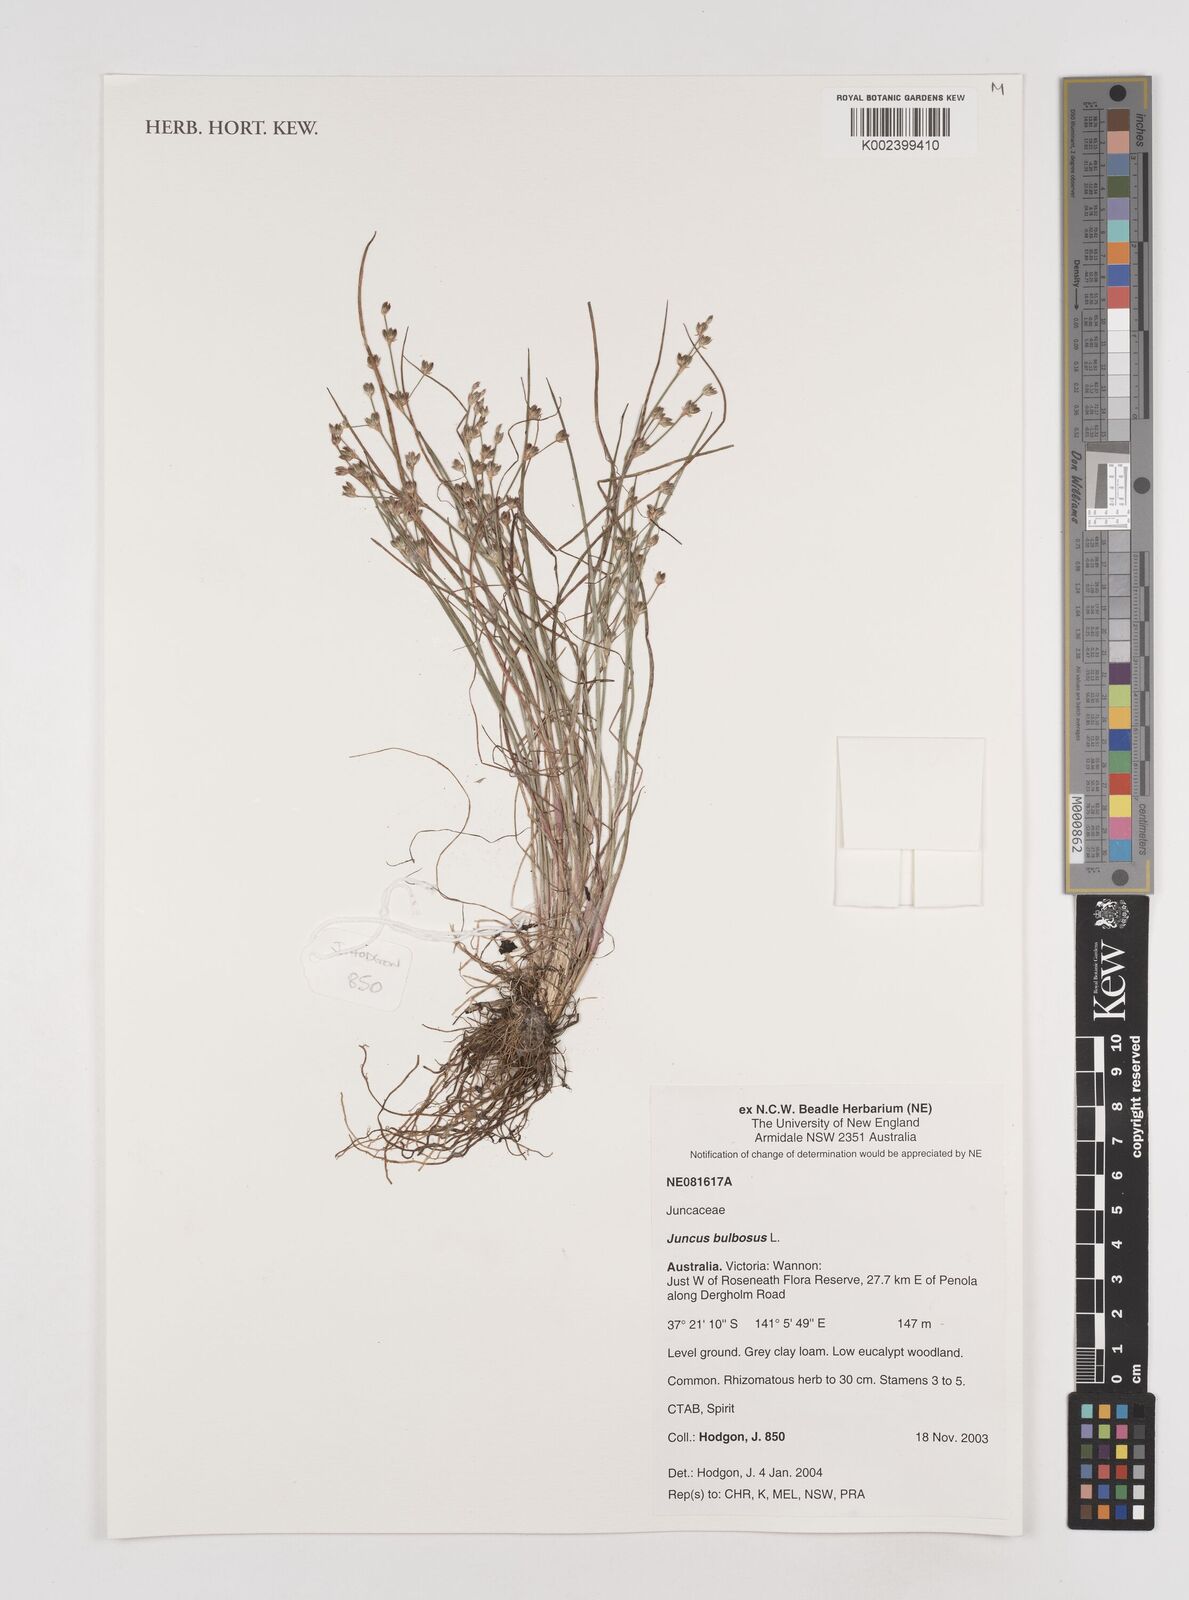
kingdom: Plantae
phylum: Tracheophyta
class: Liliopsida
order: Poales
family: Juncaceae
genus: Juncus
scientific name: Juncus bulbosus
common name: Bulbous rush
